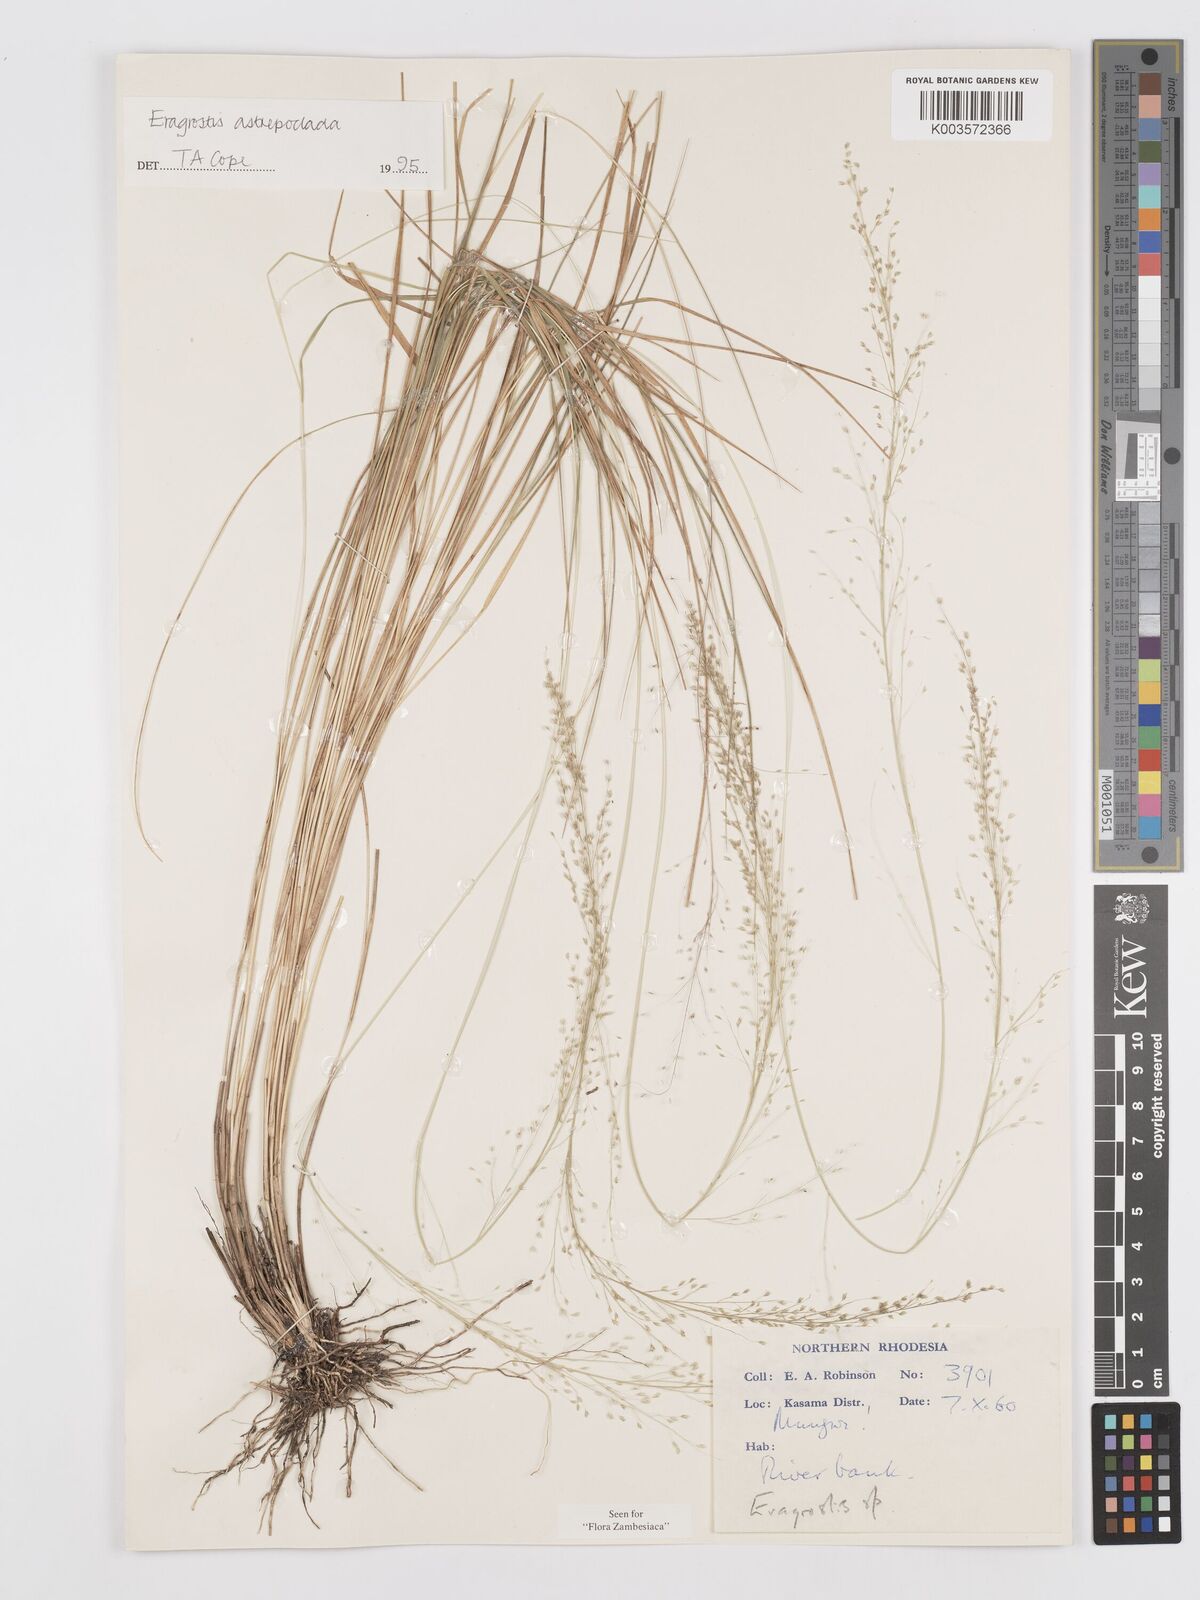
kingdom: Plantae
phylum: Tracheophyta
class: Liliopsida
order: Poales
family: Poaceae
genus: Eragrostis
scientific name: Eragrostis astreptoclada
